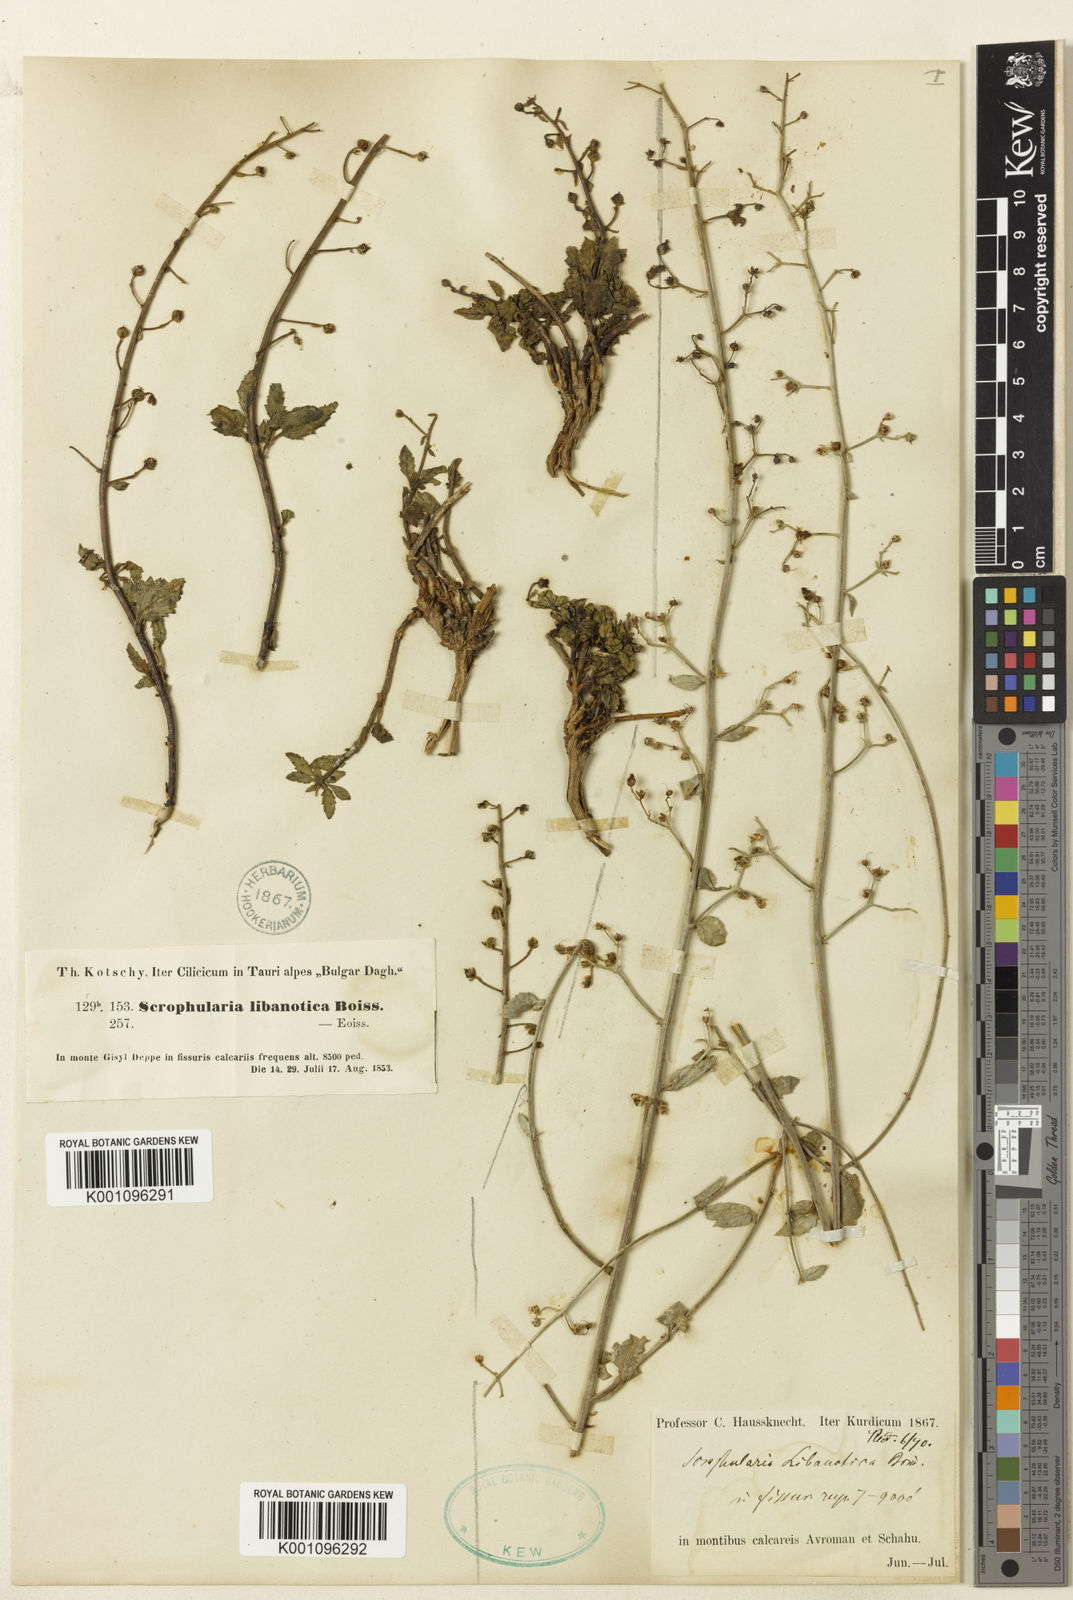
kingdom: Plantae
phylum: Tracheophyta
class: Magnoliopsida
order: Lamiales
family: Scrophulariaceae
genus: Scrophularia
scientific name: Scrophularia heterophylla
